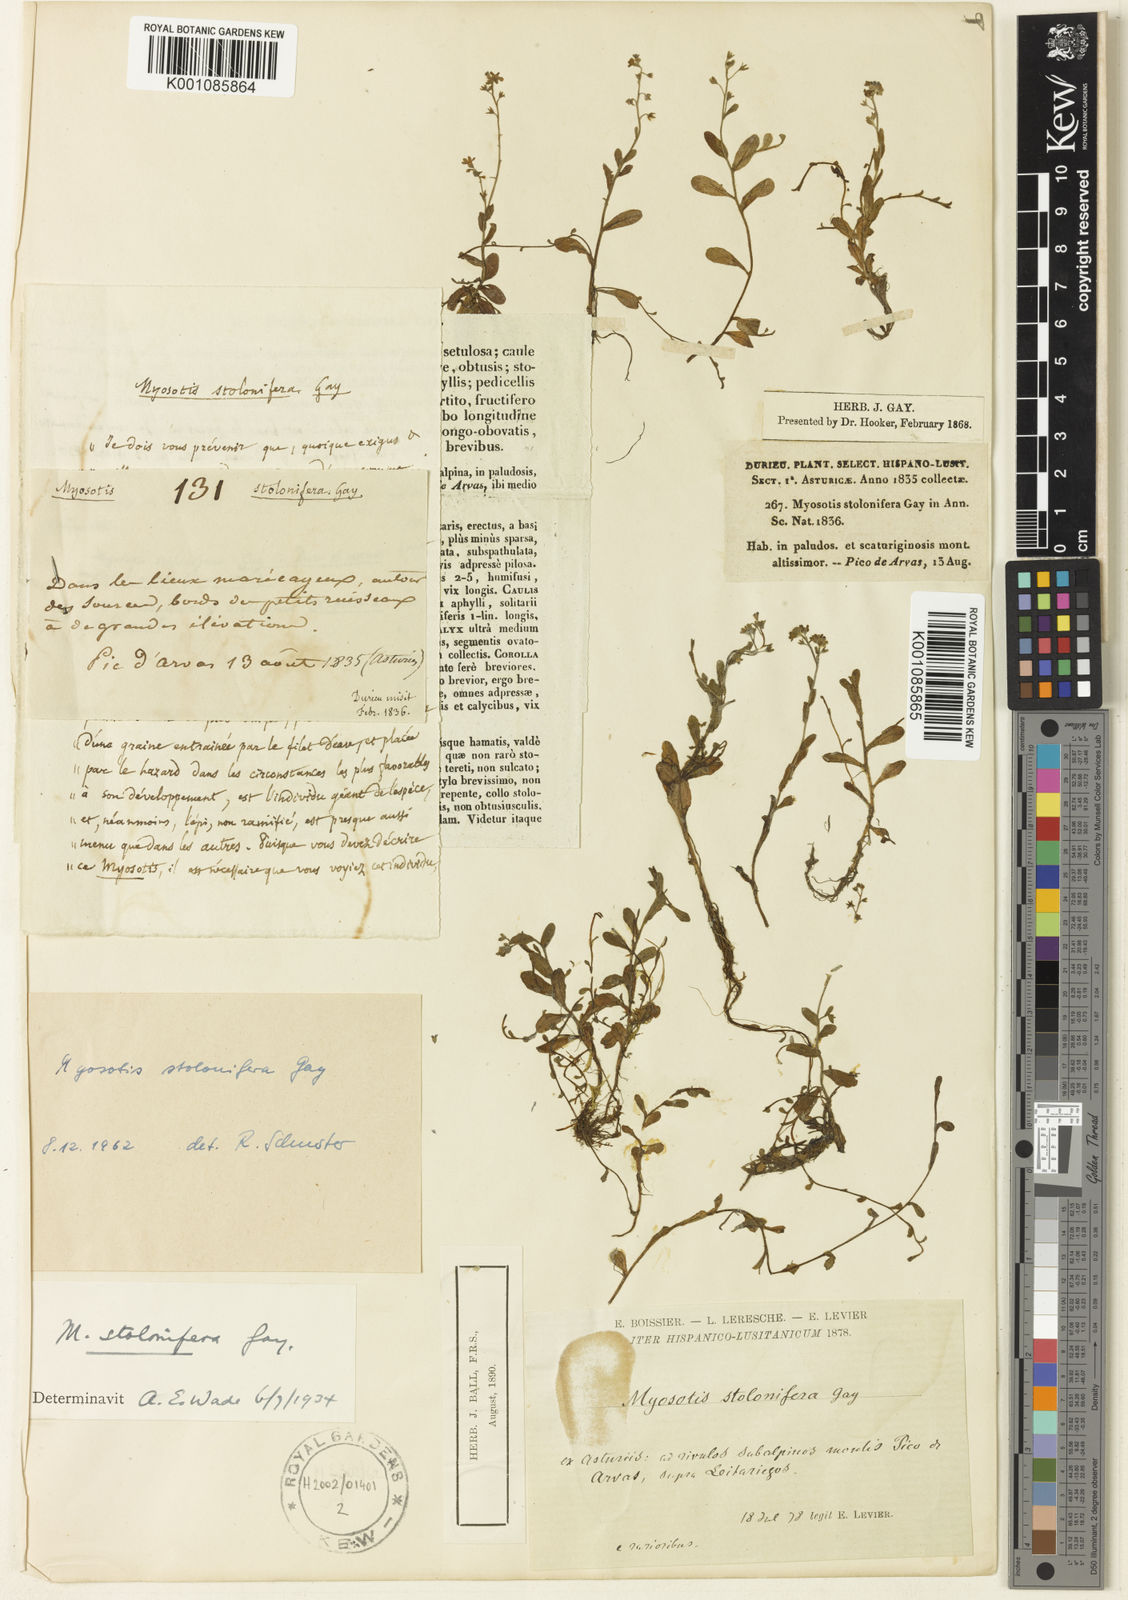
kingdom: Plantae
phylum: Tracheophyta
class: Magnoliopsida
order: Boraginales
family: Boraginaceae
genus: Myosotis
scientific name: Myosotis
